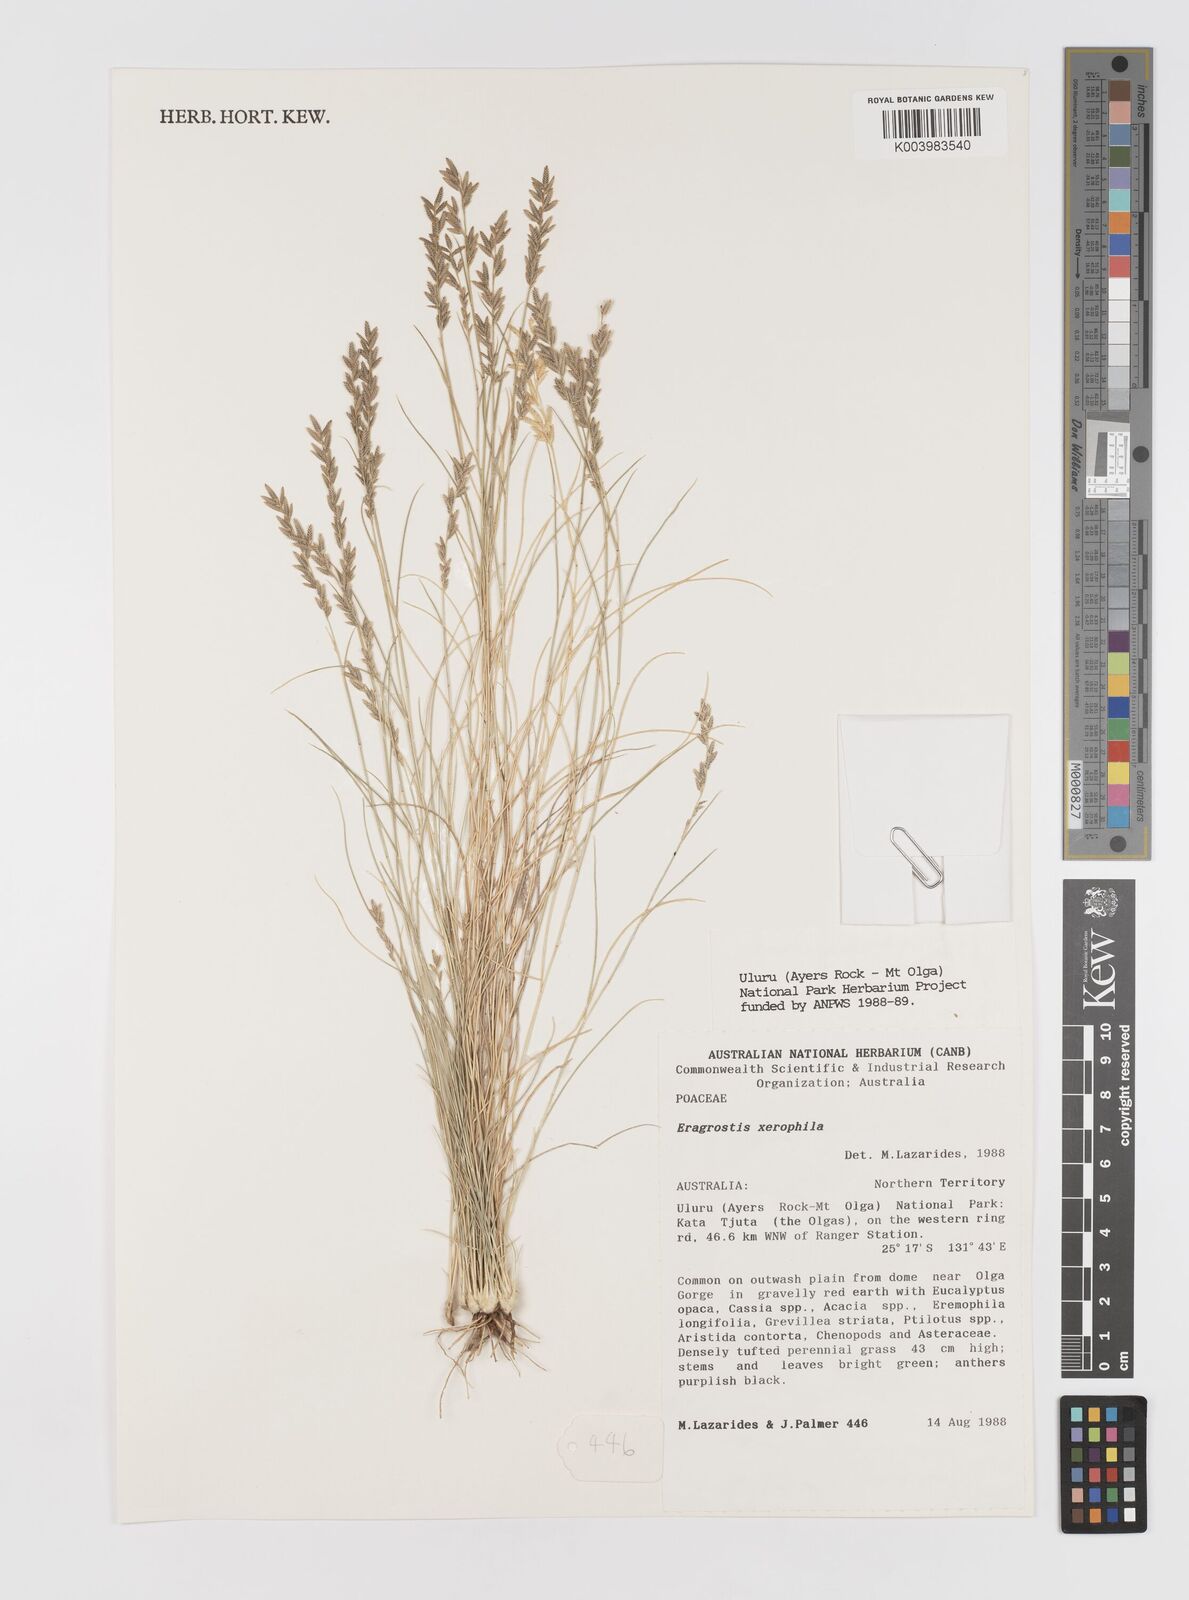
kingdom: Plantae
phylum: Tracheophyta
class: Liliopsida
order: Poales
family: Poaceae
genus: Eragrostis
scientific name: Eragrostis xerophila
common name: Wire wandarrie grass
